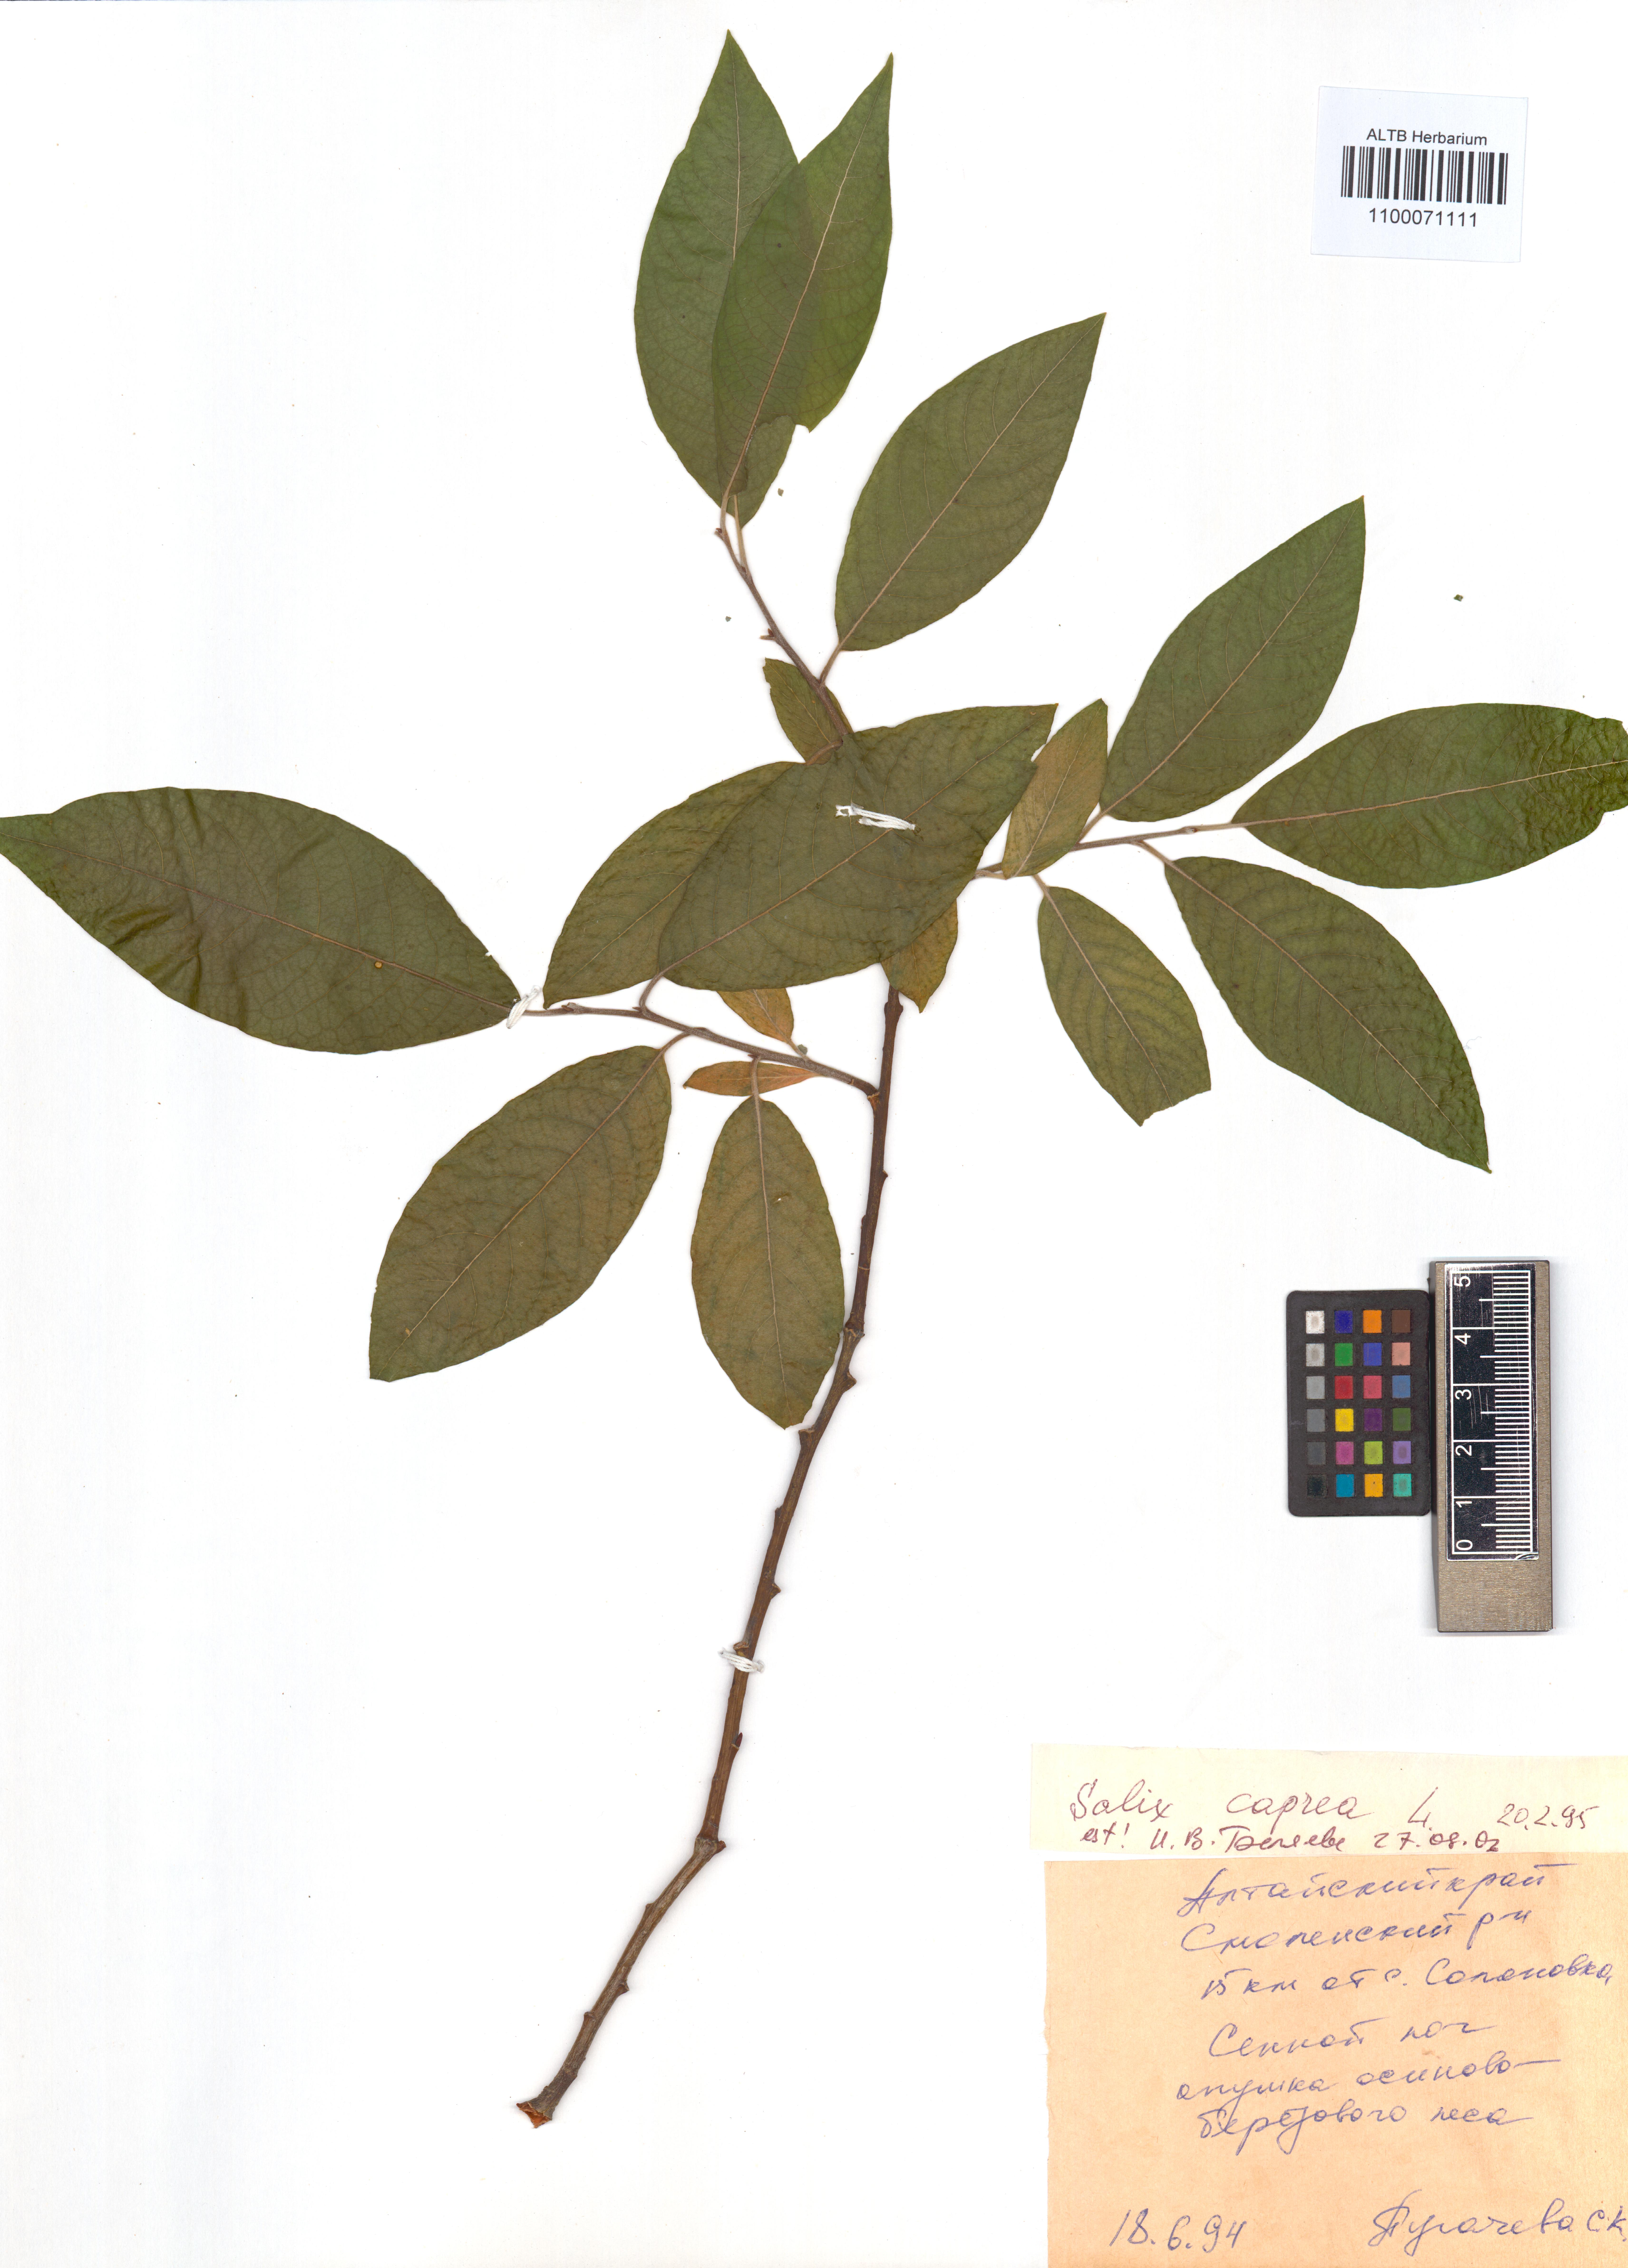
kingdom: Plantae
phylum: Tracheophyta
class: Magnoliopsida
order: Malpighiales
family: Salicaceae
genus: Salix
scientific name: Salix caprea
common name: Goat willow
